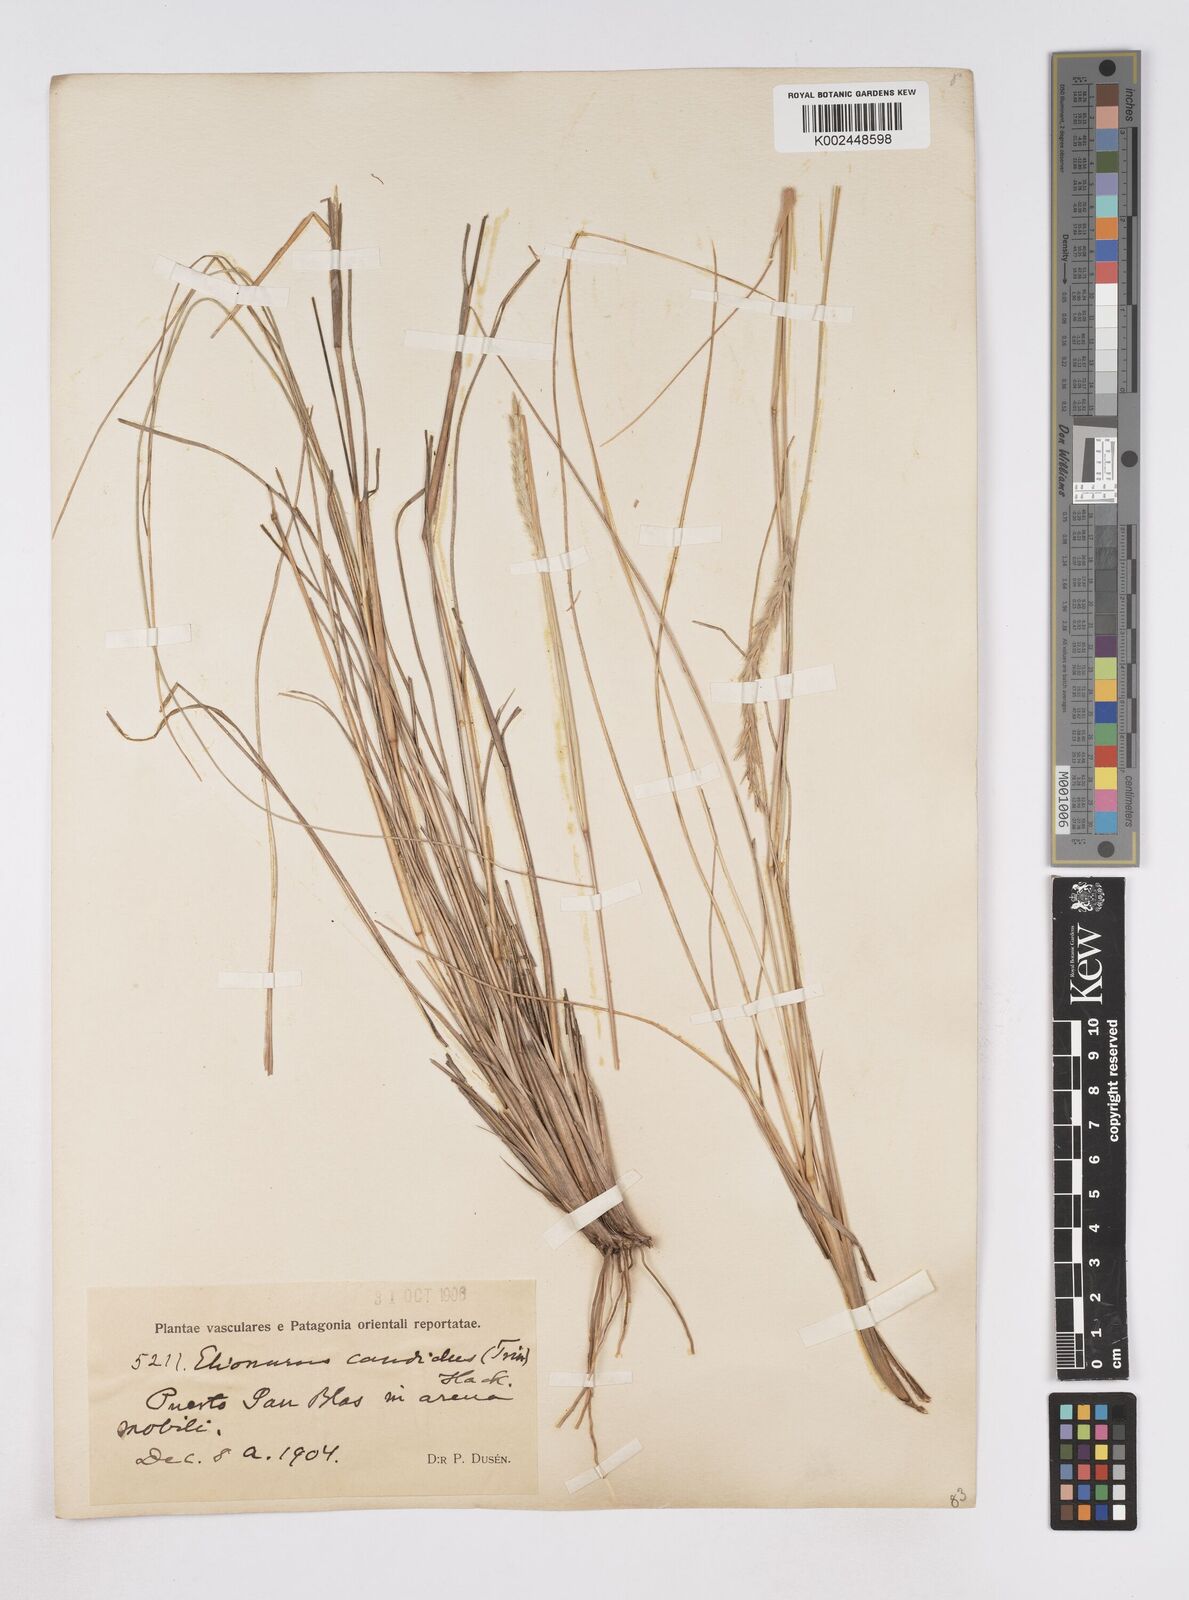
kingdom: Plantae
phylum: Tracheophyta
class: Liliopsida
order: Poales
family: Poaceae
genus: Elionurus
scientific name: Elionurus muticus
